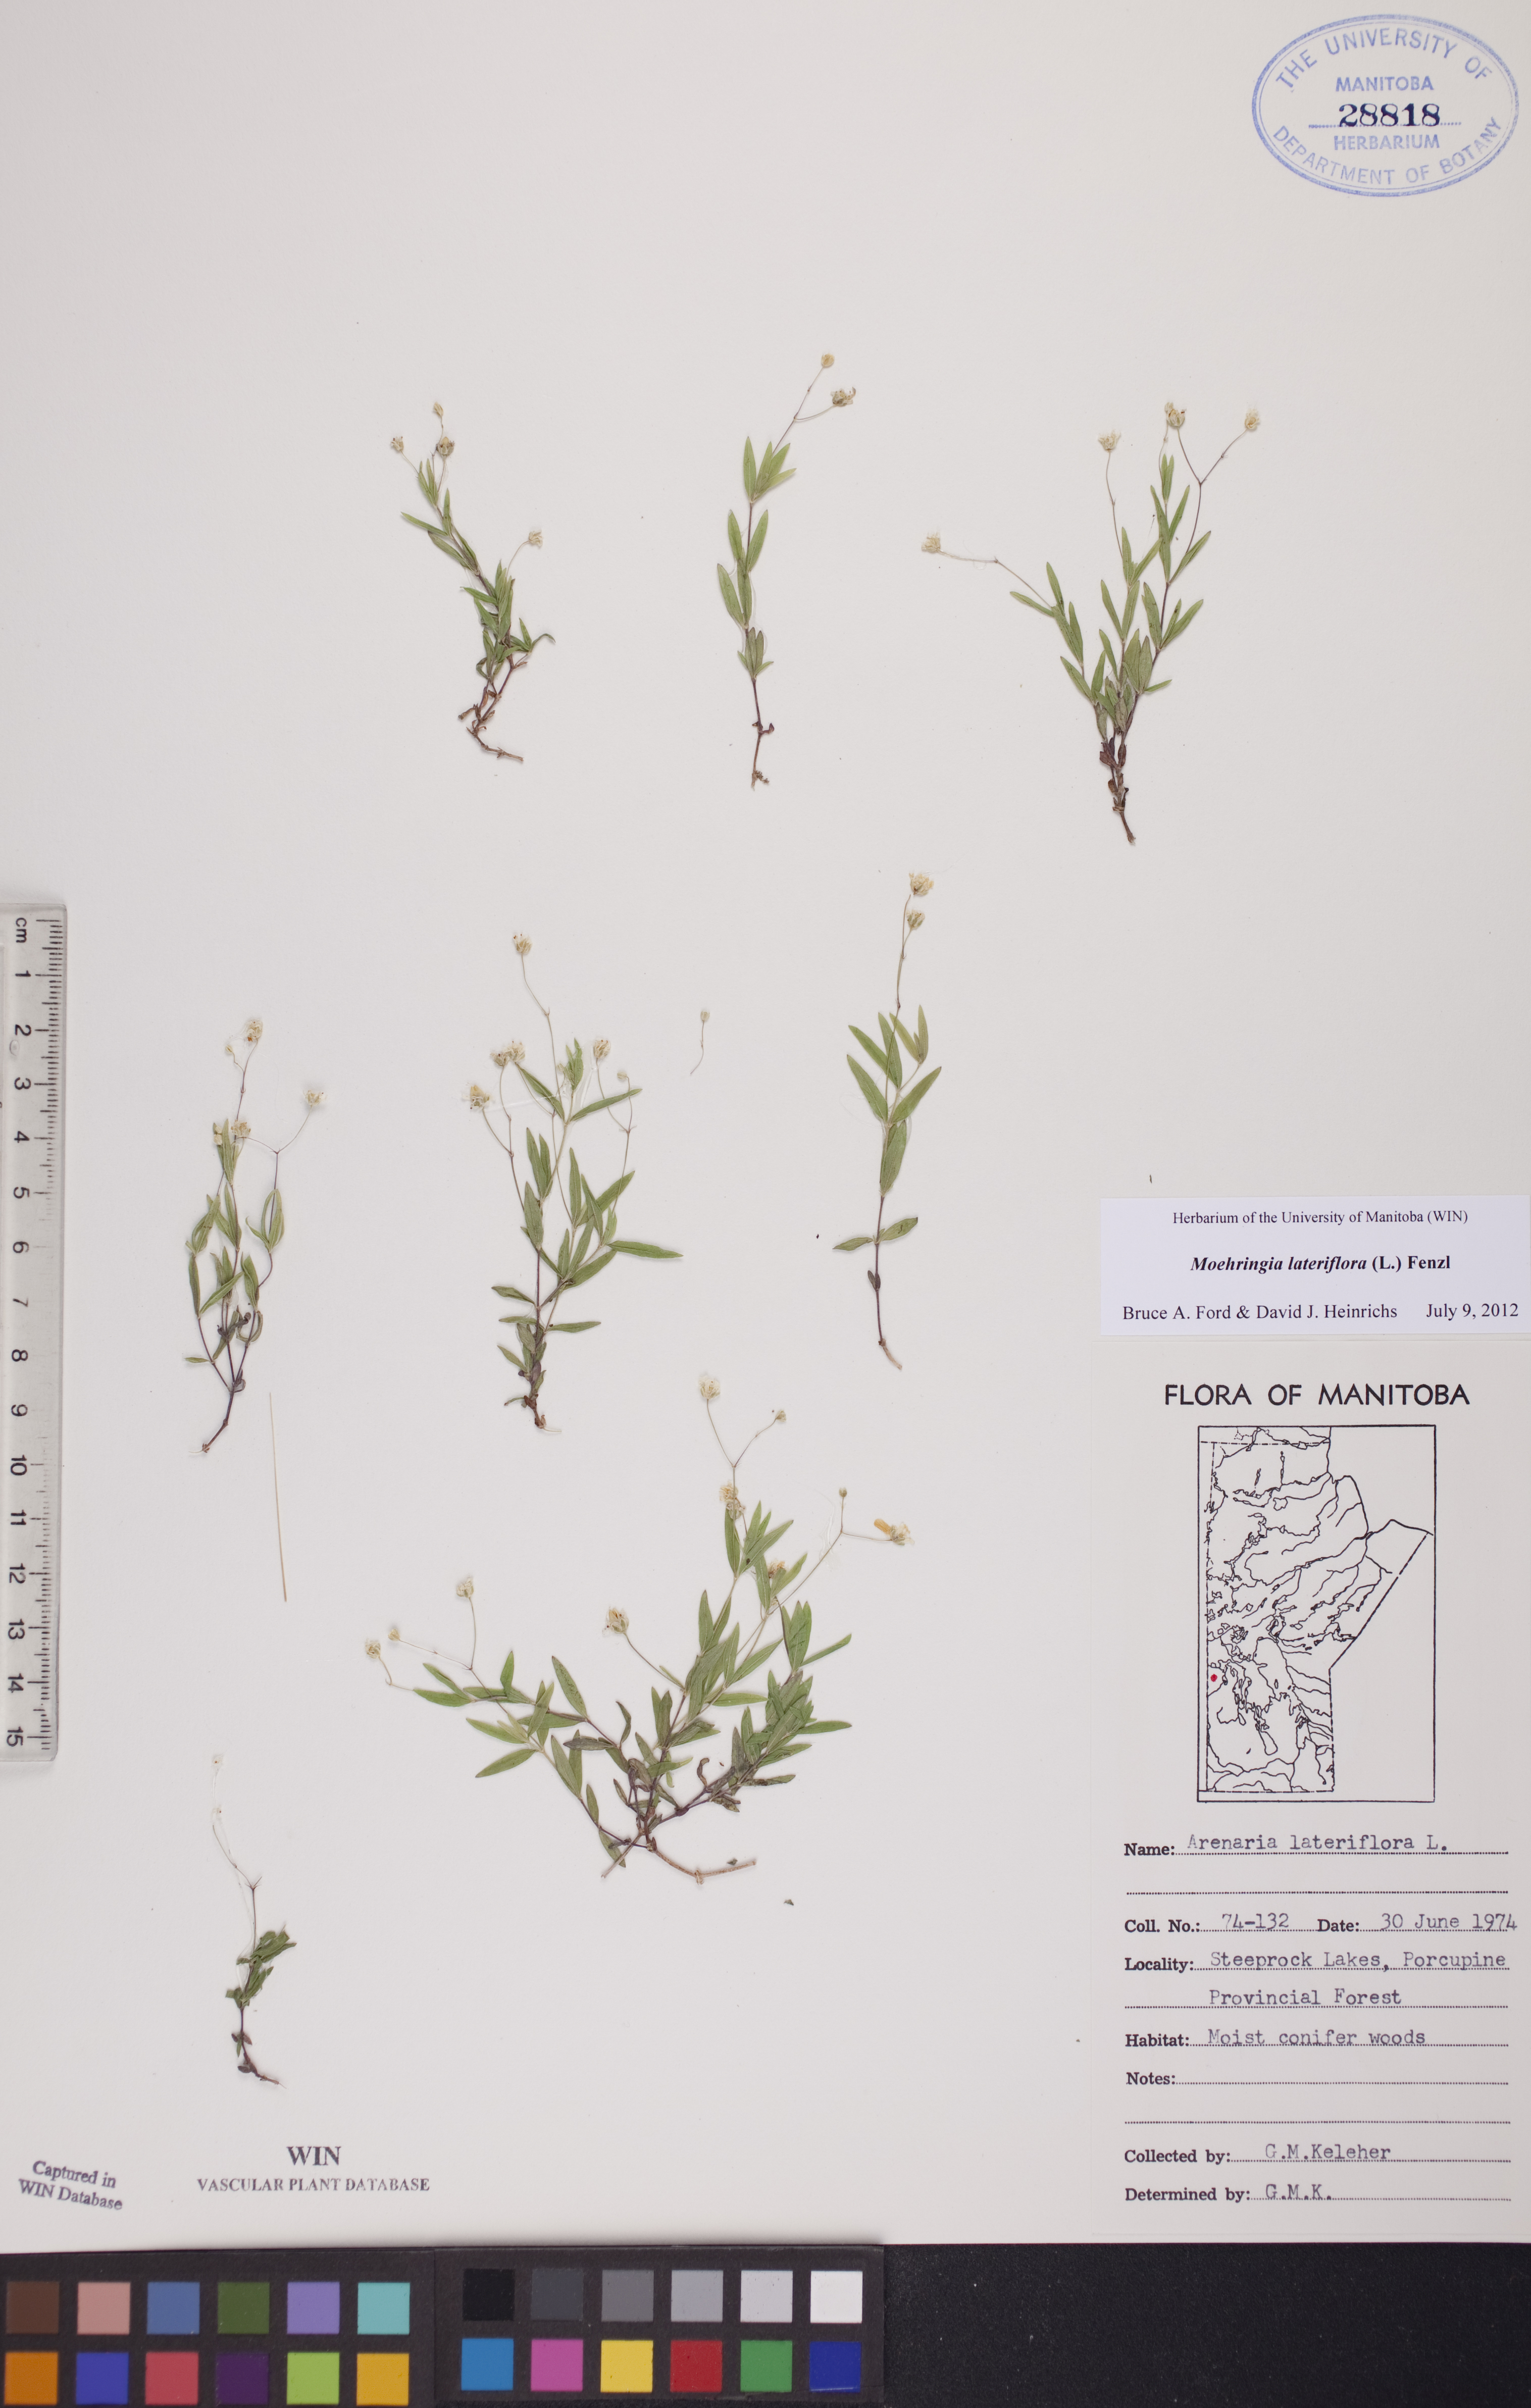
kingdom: Plantae
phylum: Tracheophyta
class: Magnoliopsida
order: Caryophyllales
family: Caryophyllaceae
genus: Moehringia
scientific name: Moehringia lateriflora
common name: Blunt-leaved sandwort
